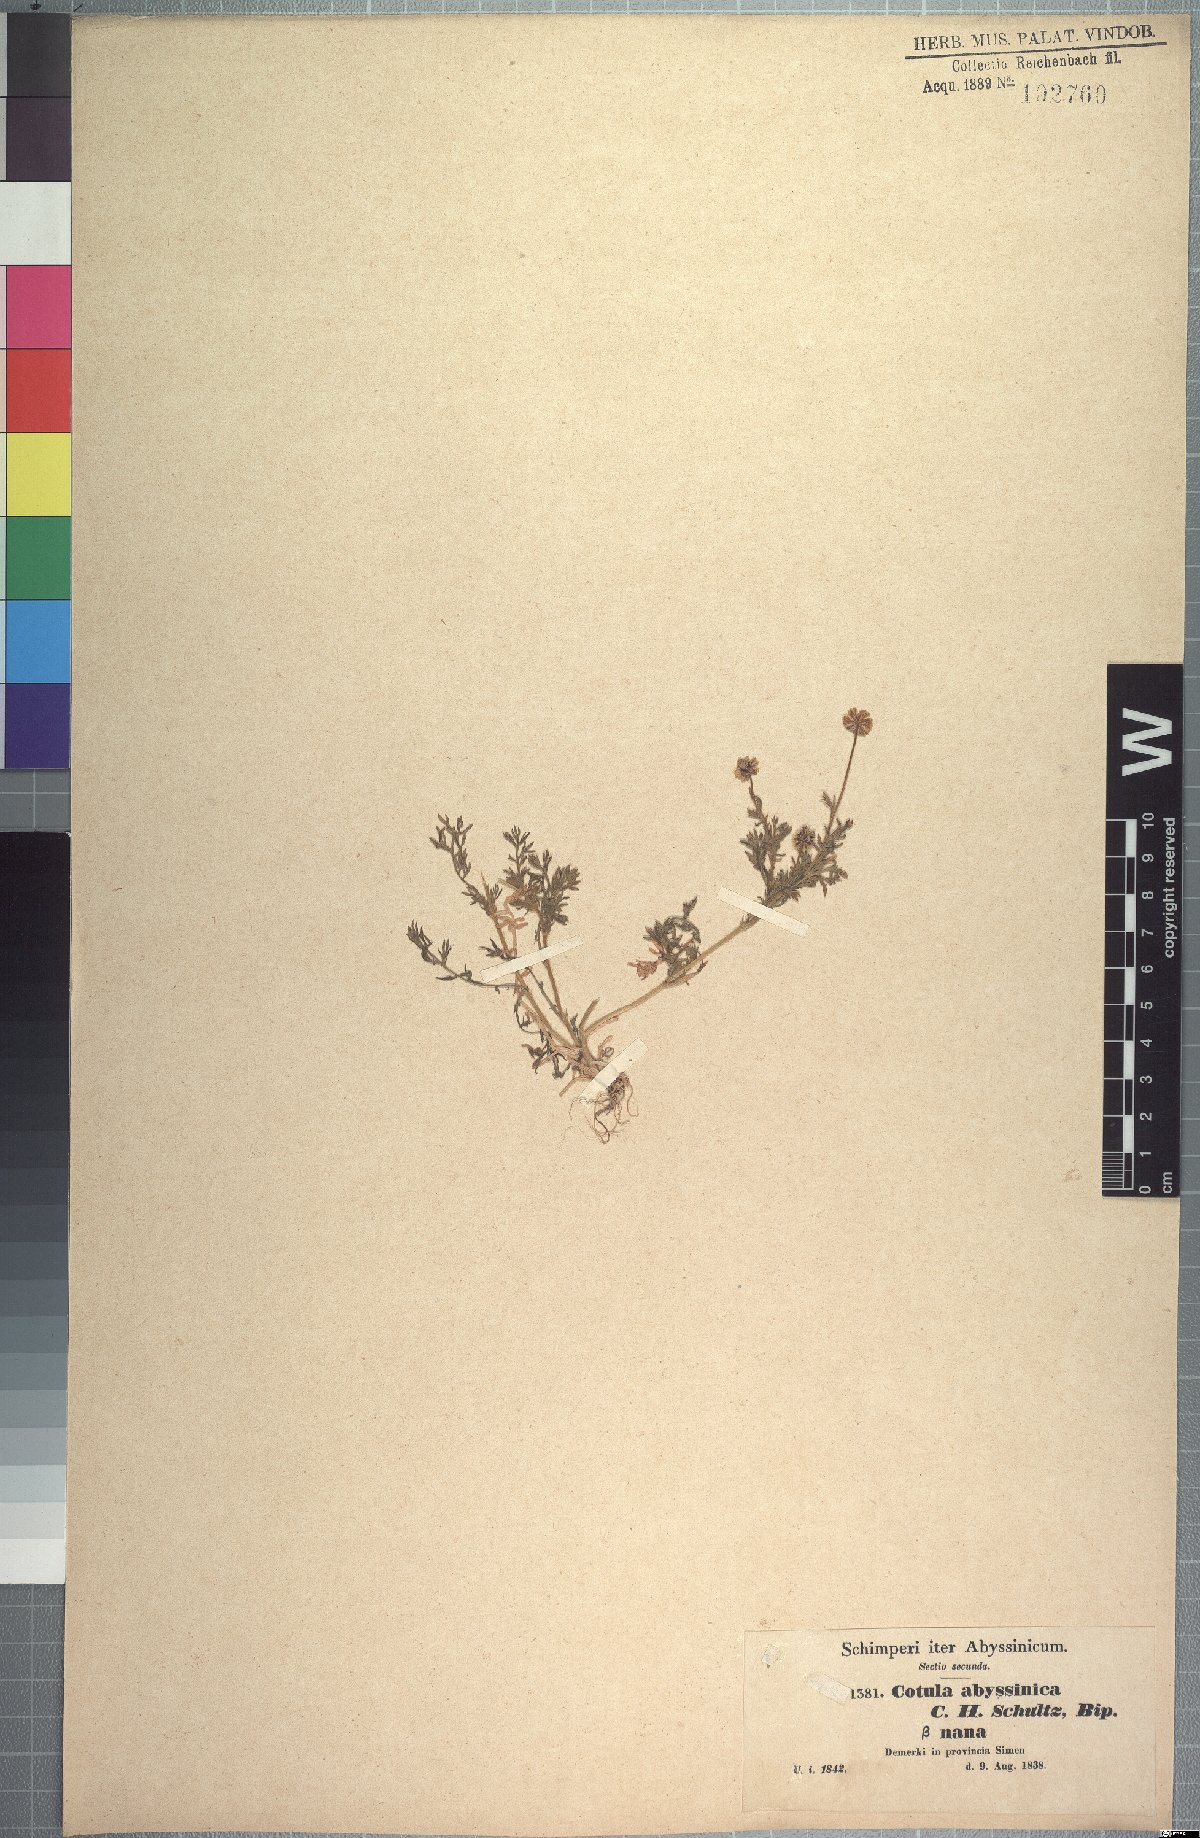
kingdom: Plantae
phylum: Tracheophyta
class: Magnoliopsida
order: Asterales
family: Asteraceae
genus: Cotula
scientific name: Cotula abyssinica
